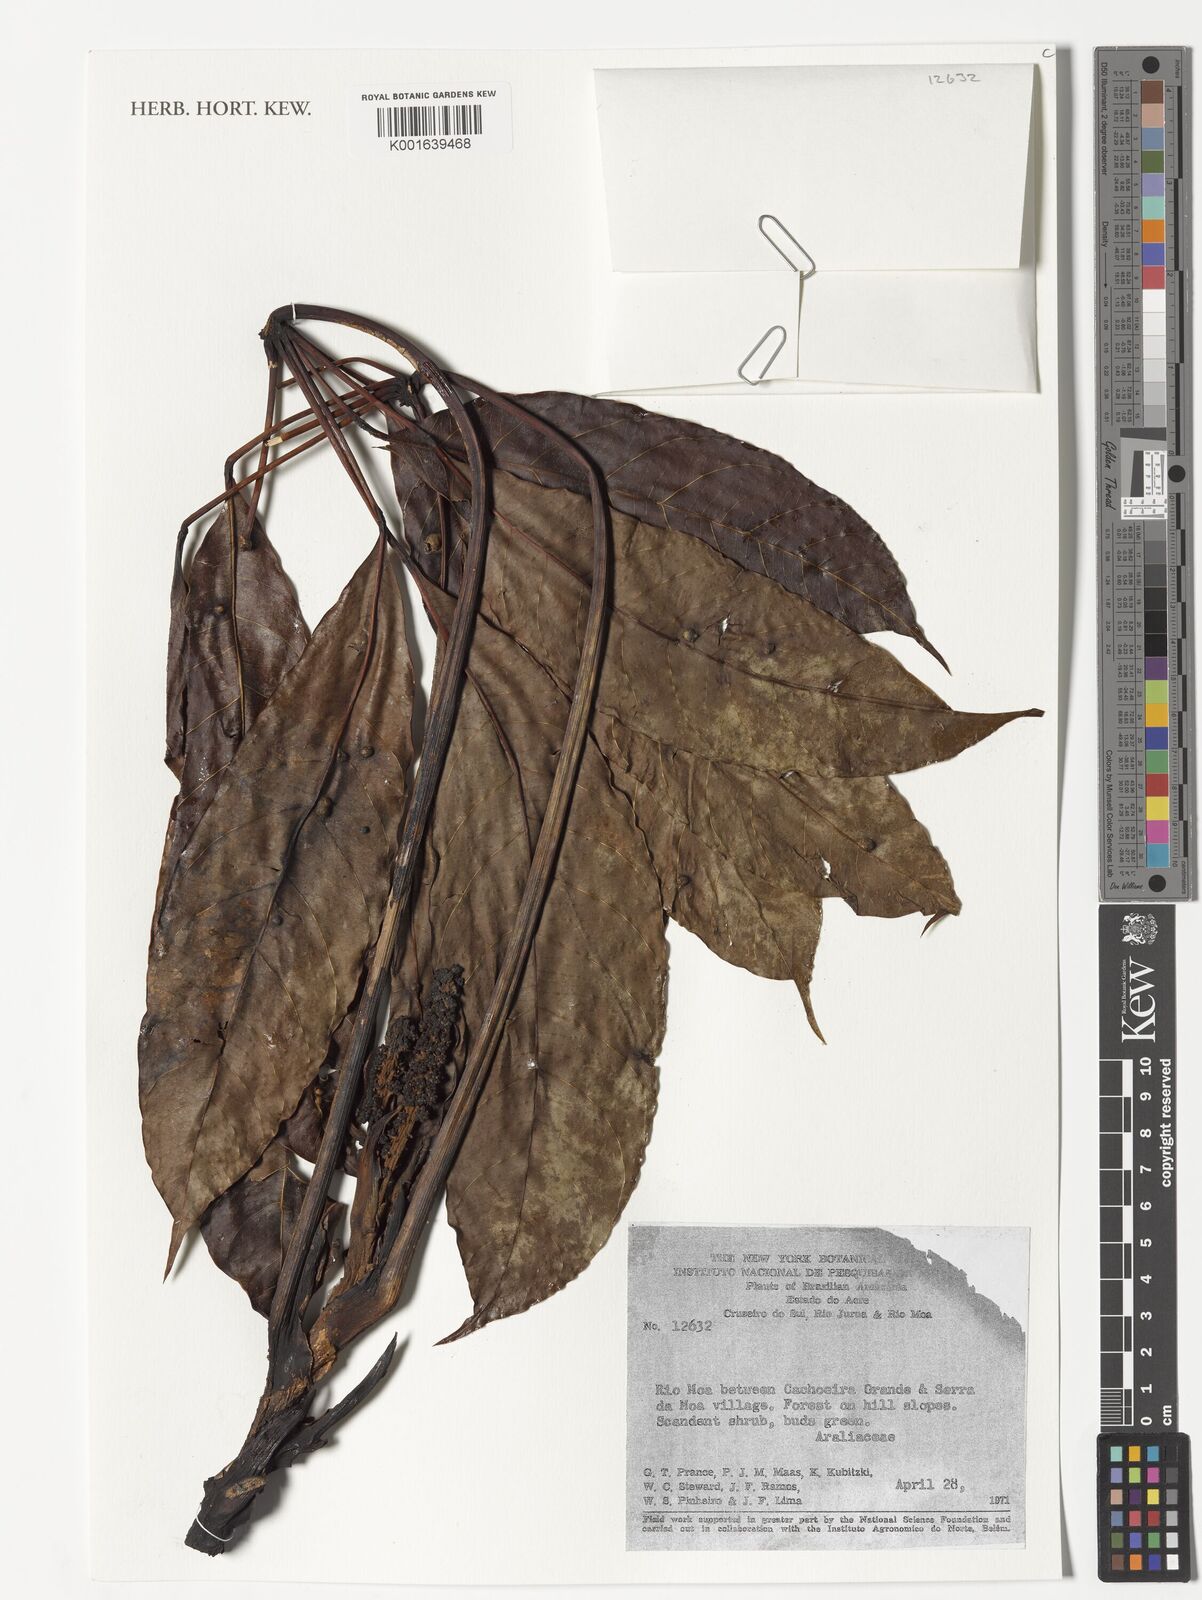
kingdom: Plantae
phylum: Tracheophyta
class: Magnoliopsida
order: Apiales
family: Araliaceae
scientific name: Araliaceae
